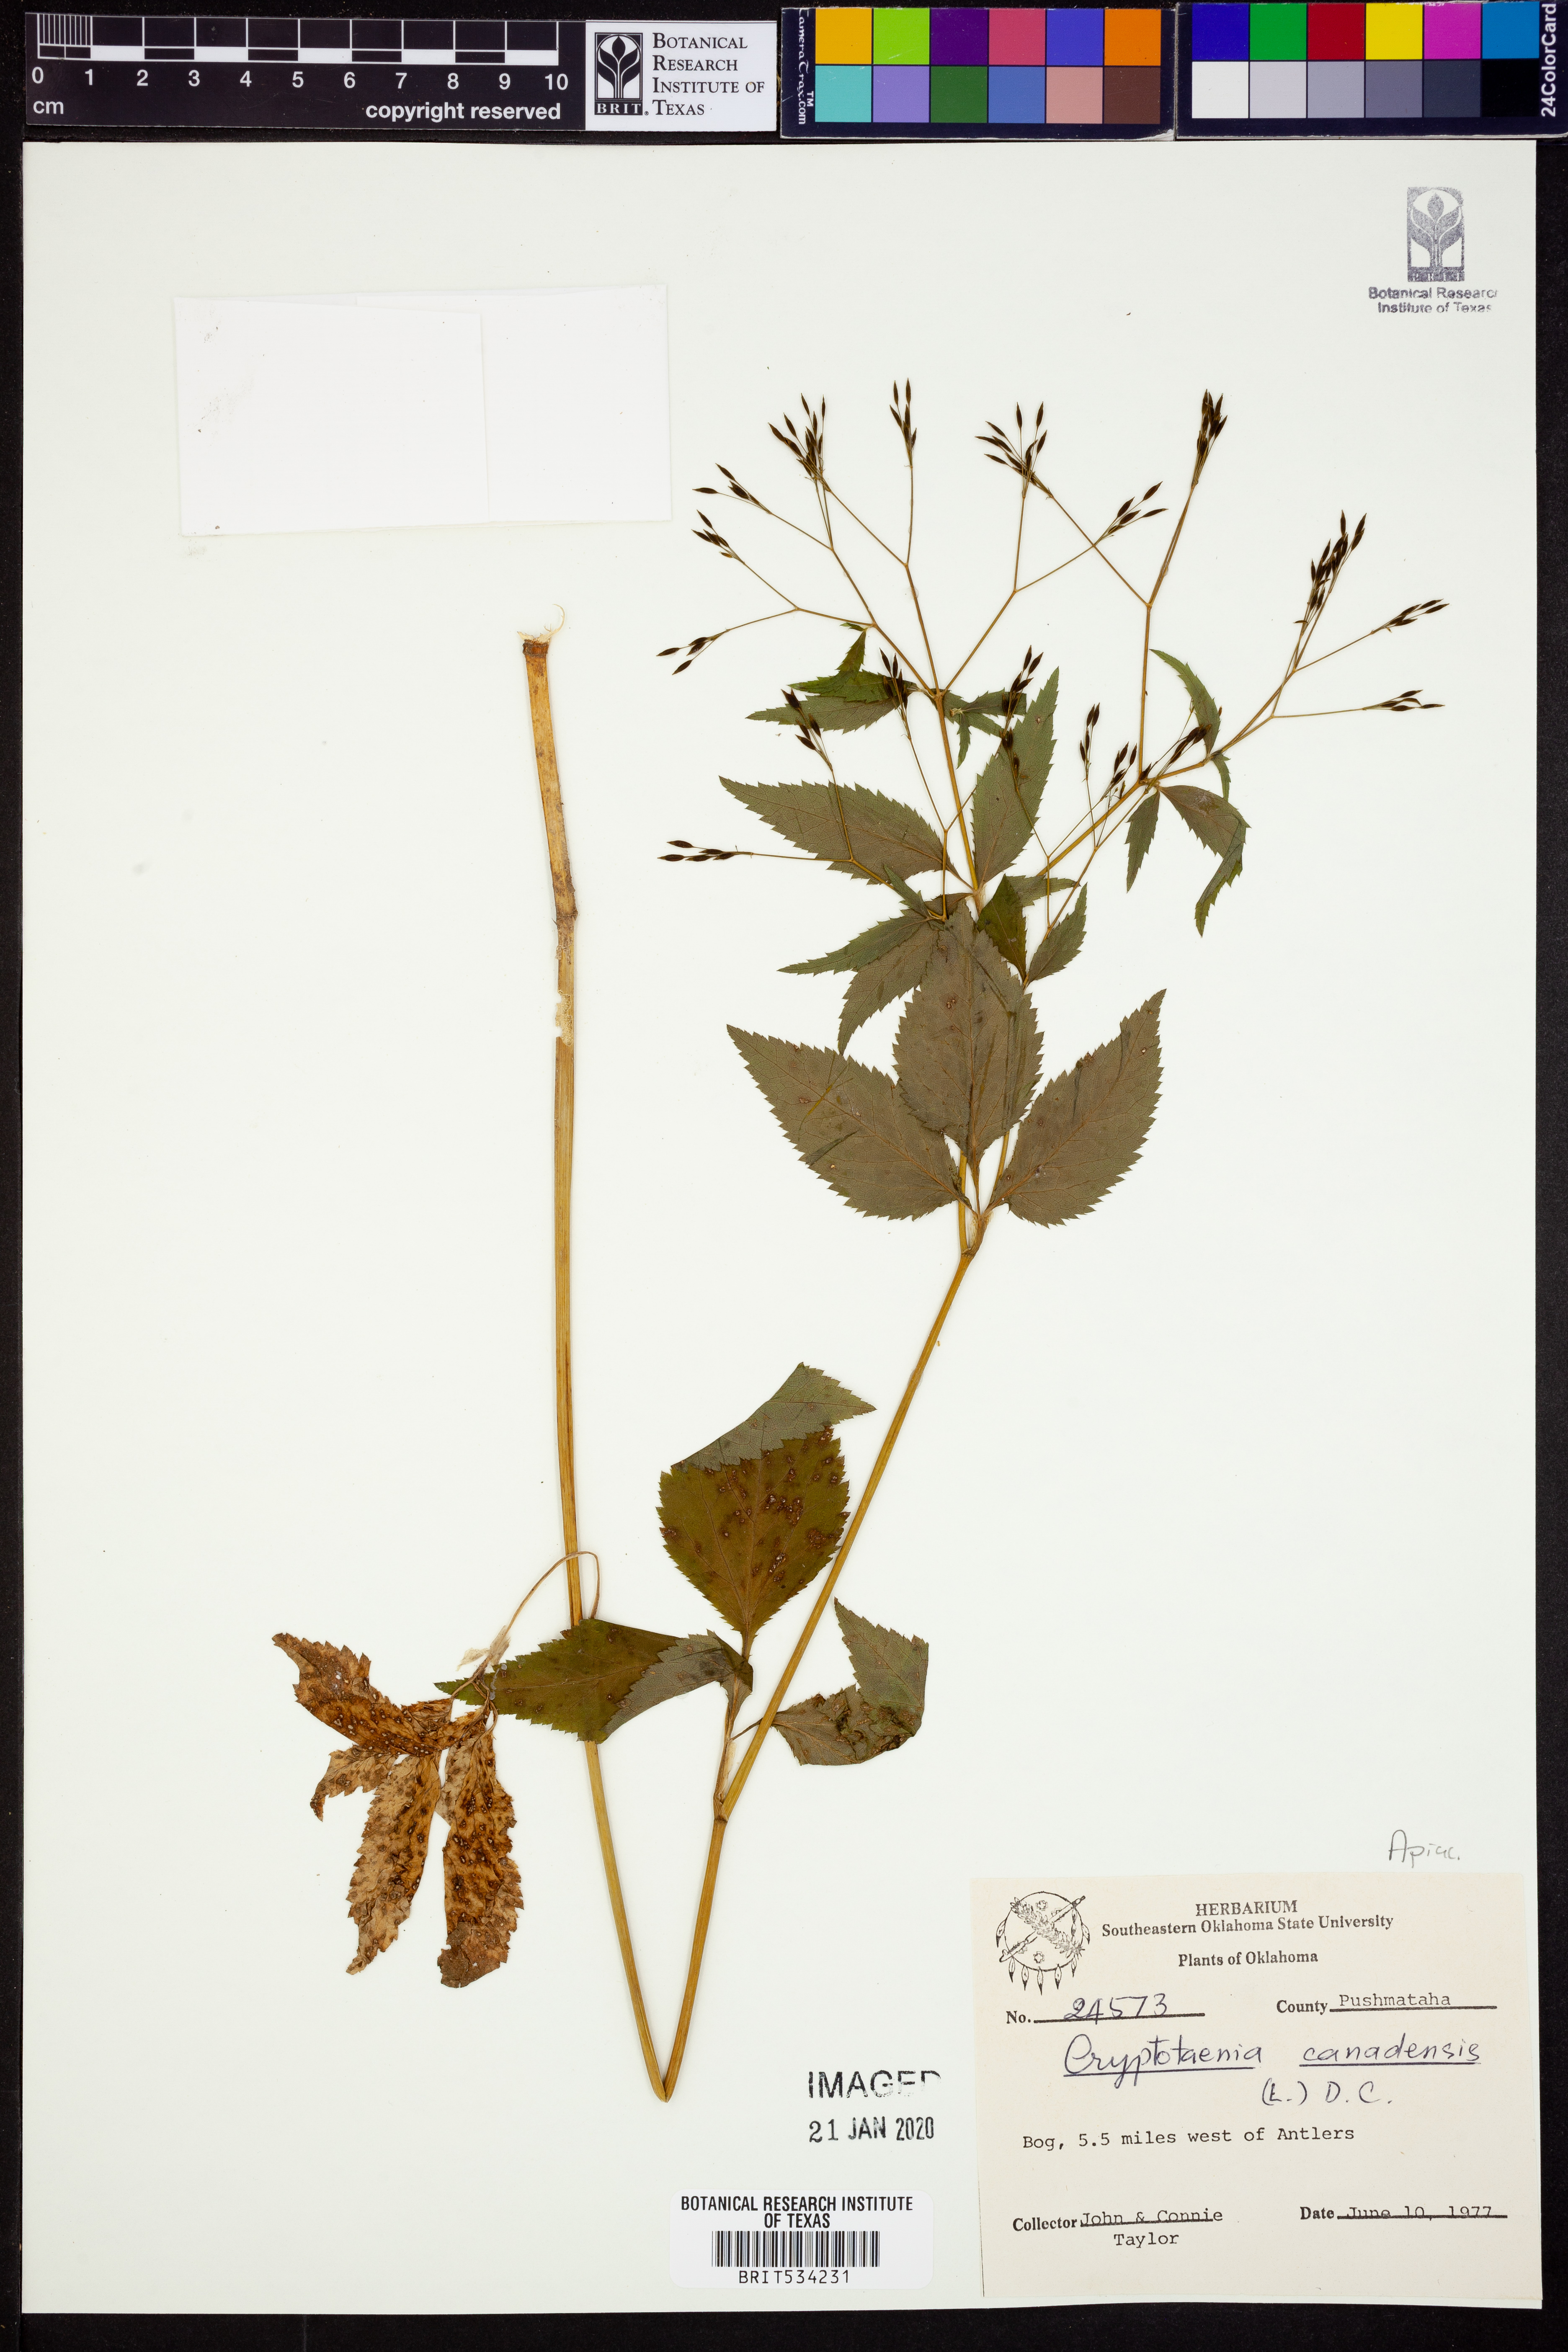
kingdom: Plantae
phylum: Tracheophyta
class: Magnoliopsida
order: Apiales
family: Apiaceae
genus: Cryptotaenia
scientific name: Cryptotaenia canadensis
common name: Honewort
